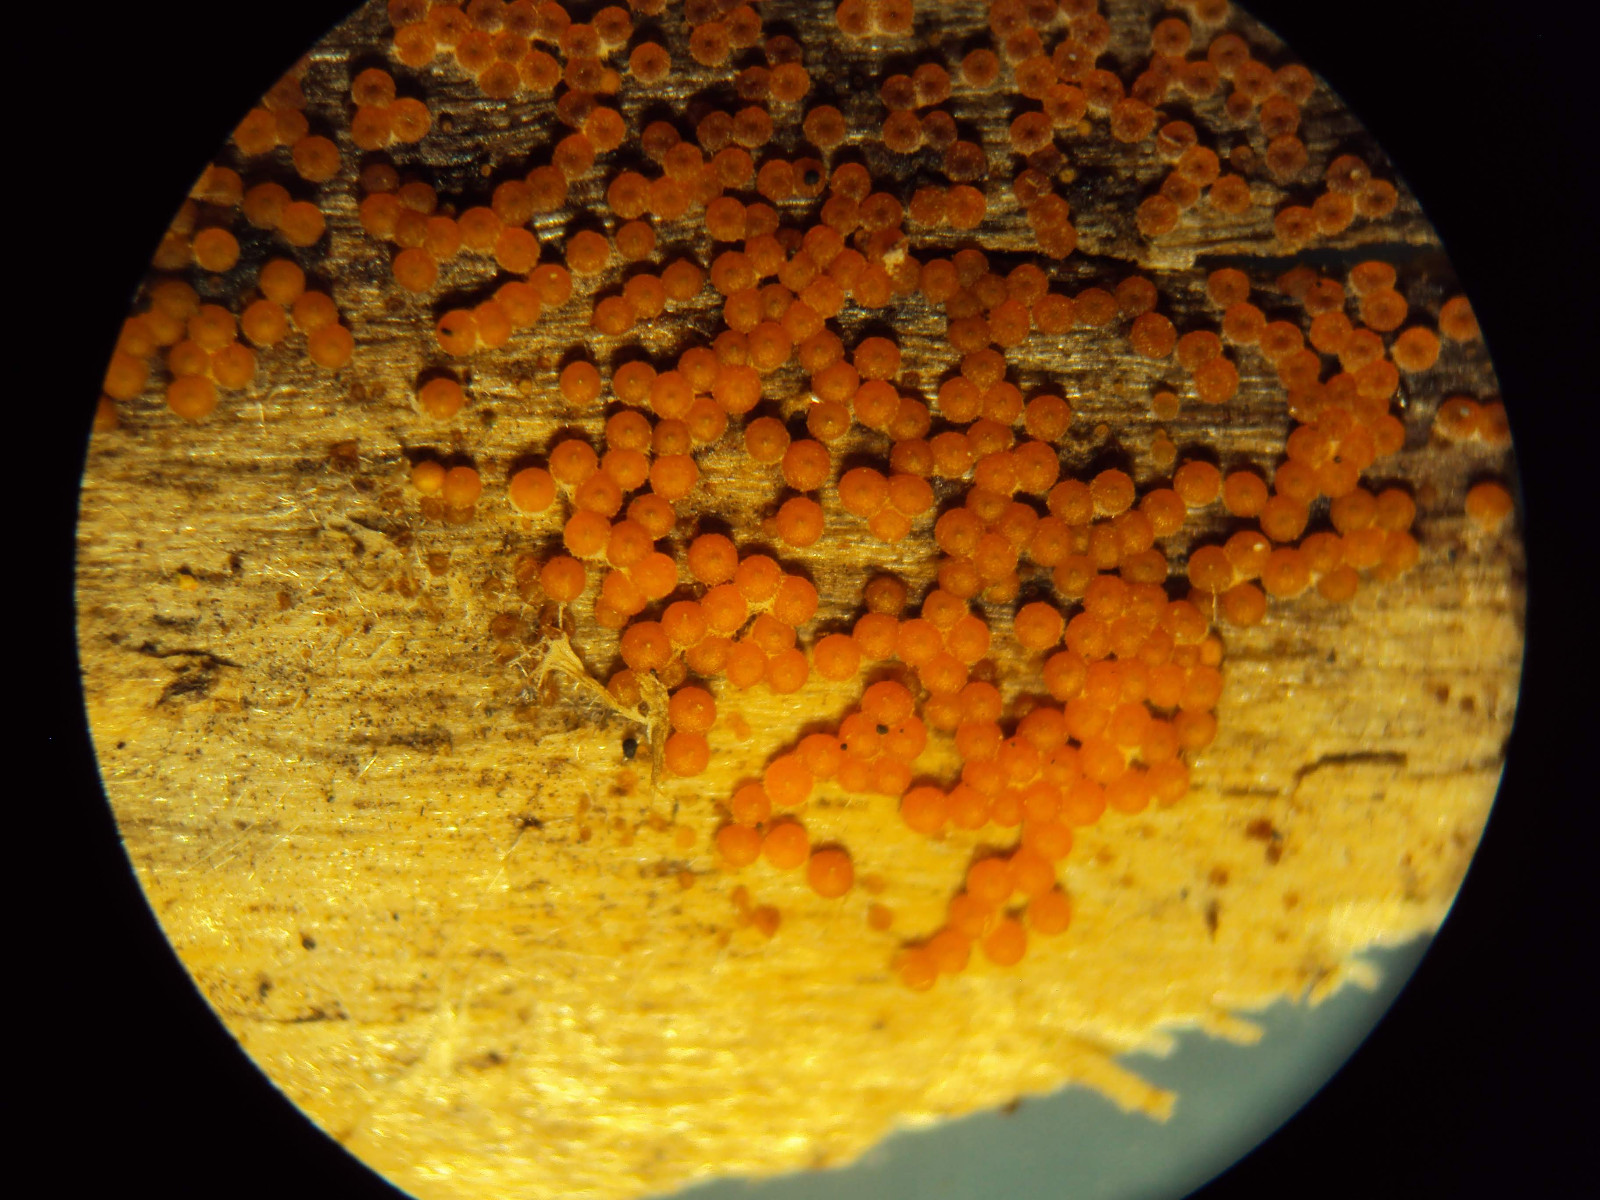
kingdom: Fungi
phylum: Ascomycota
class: Sordariomycetes
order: Hypocreales
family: Nectriaceae
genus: Hydropisphaera
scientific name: Hydropisphaera
